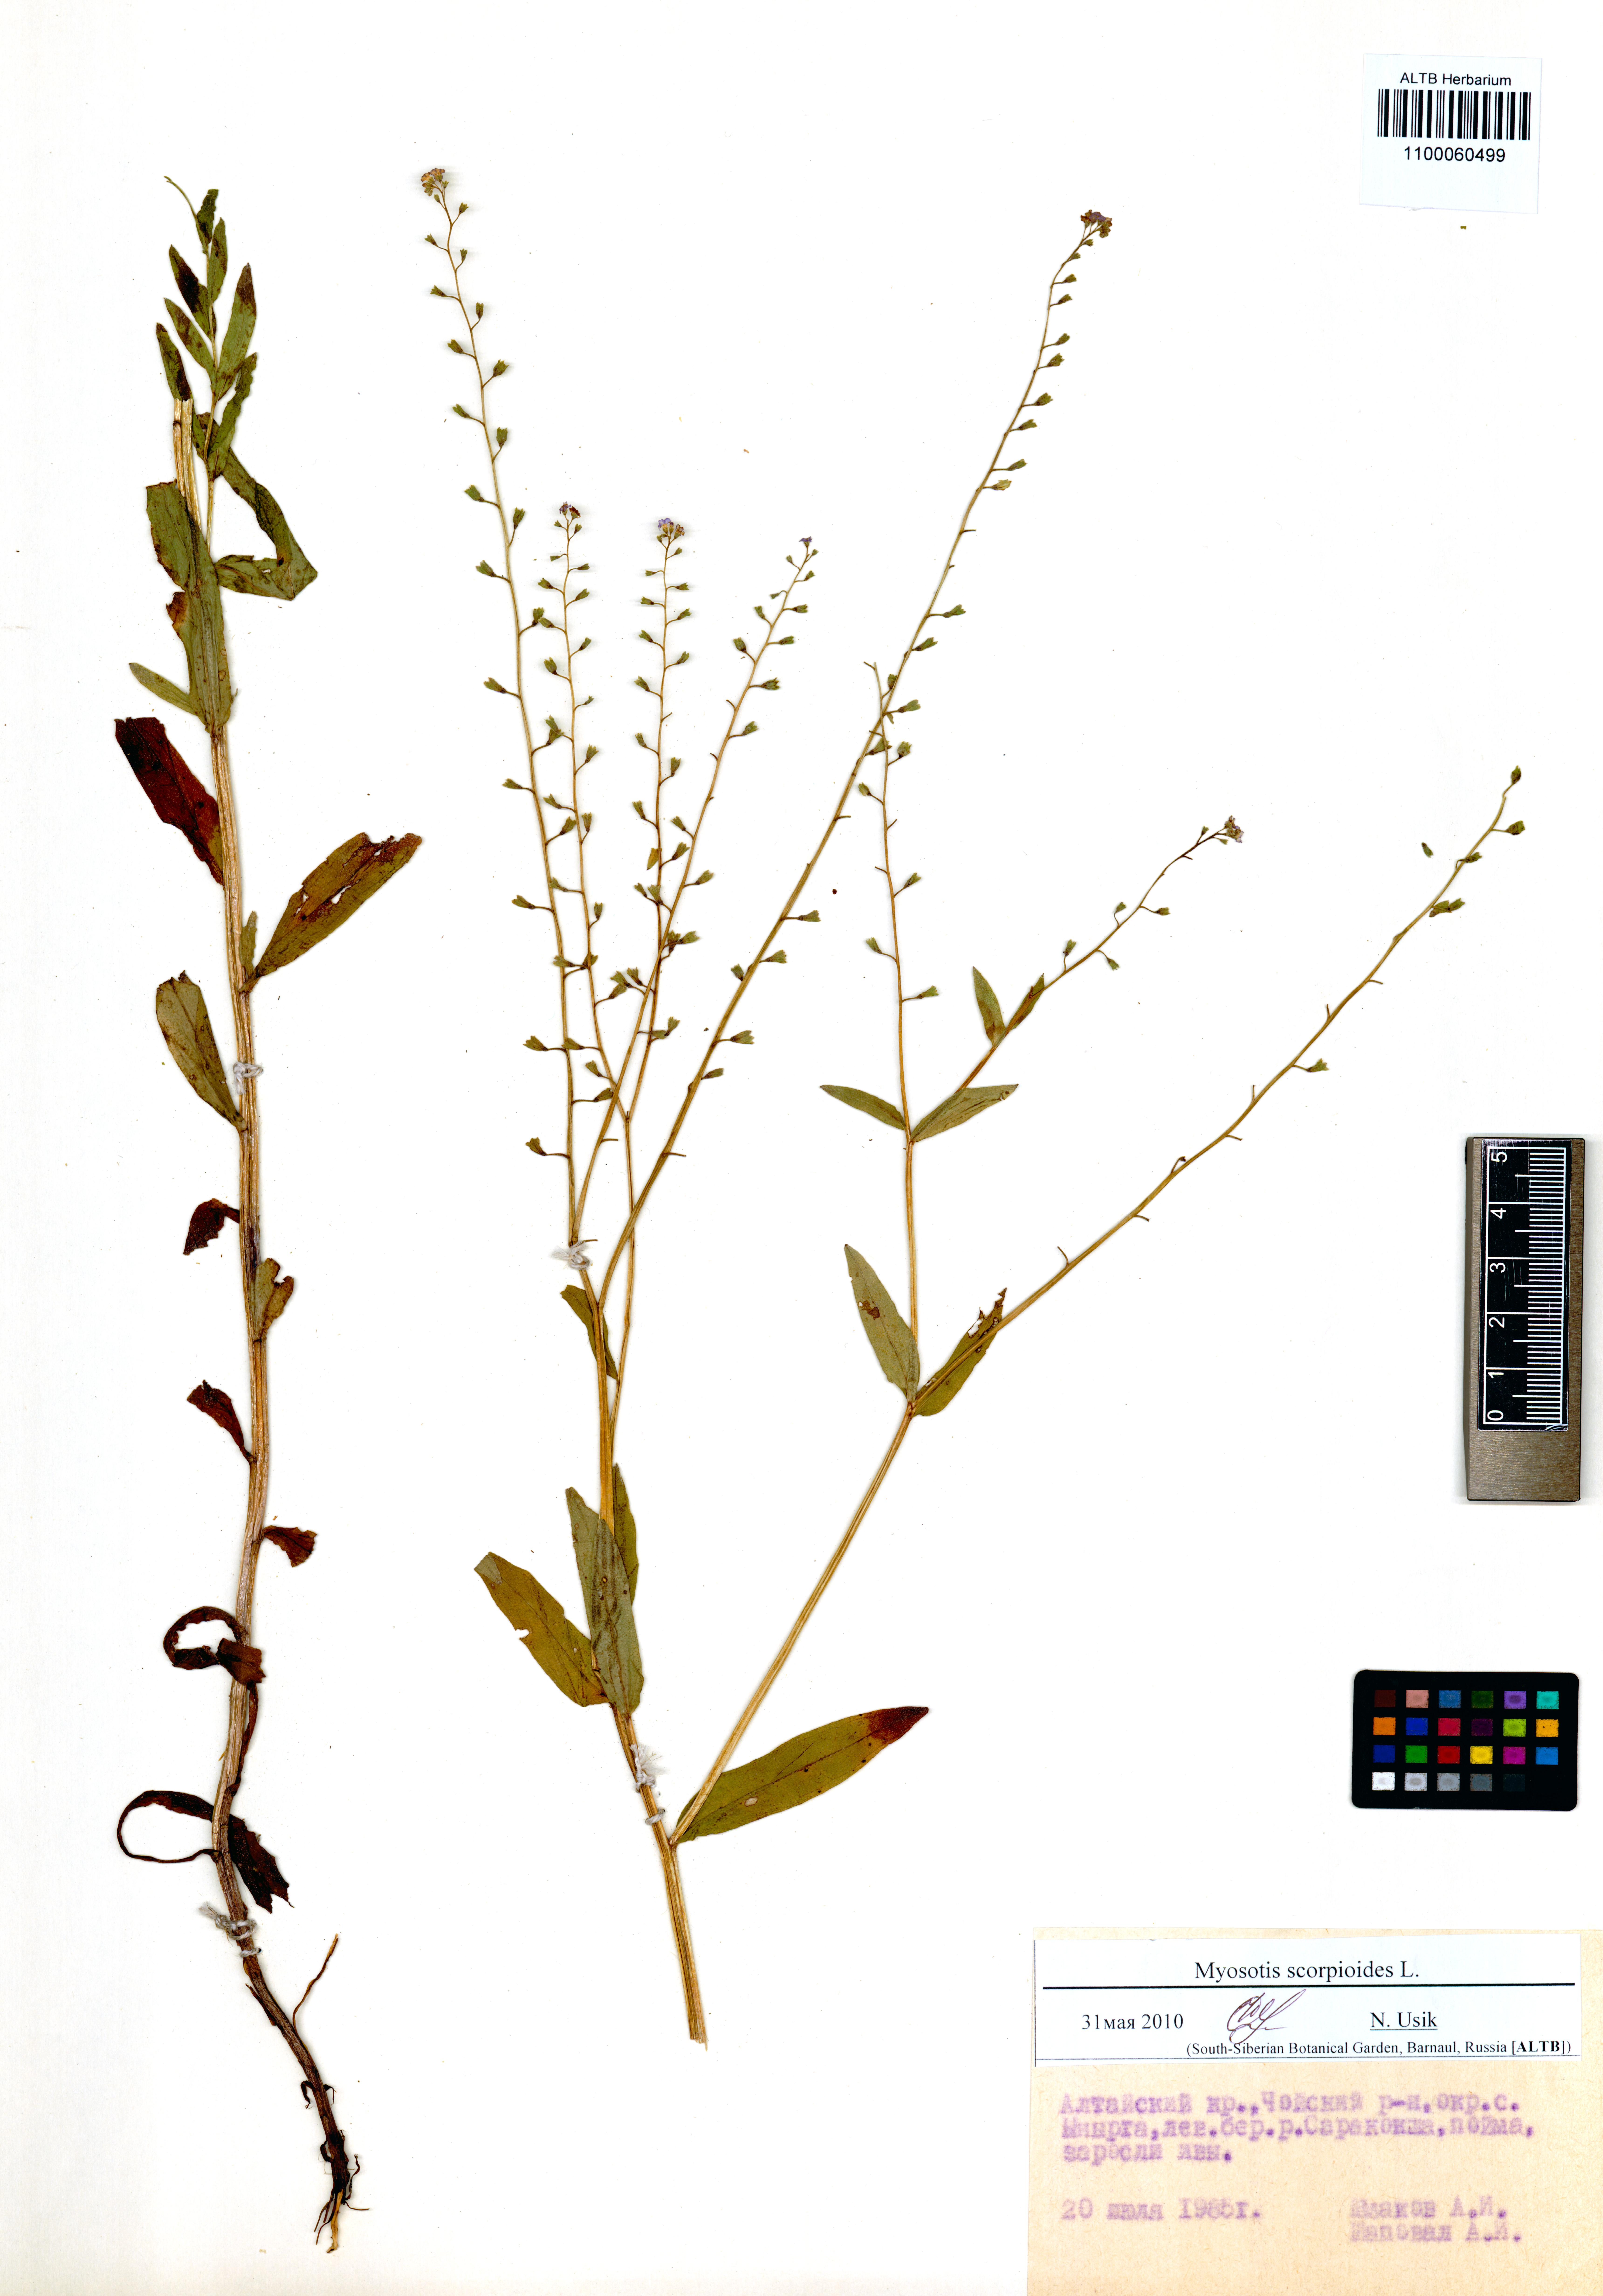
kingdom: Plantae
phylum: Tracheophyta
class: Magnoliopsida
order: Boraginales
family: Boraginaceae
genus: Myosotis
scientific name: Myosotis scorpioides
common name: Water forget-me-not
